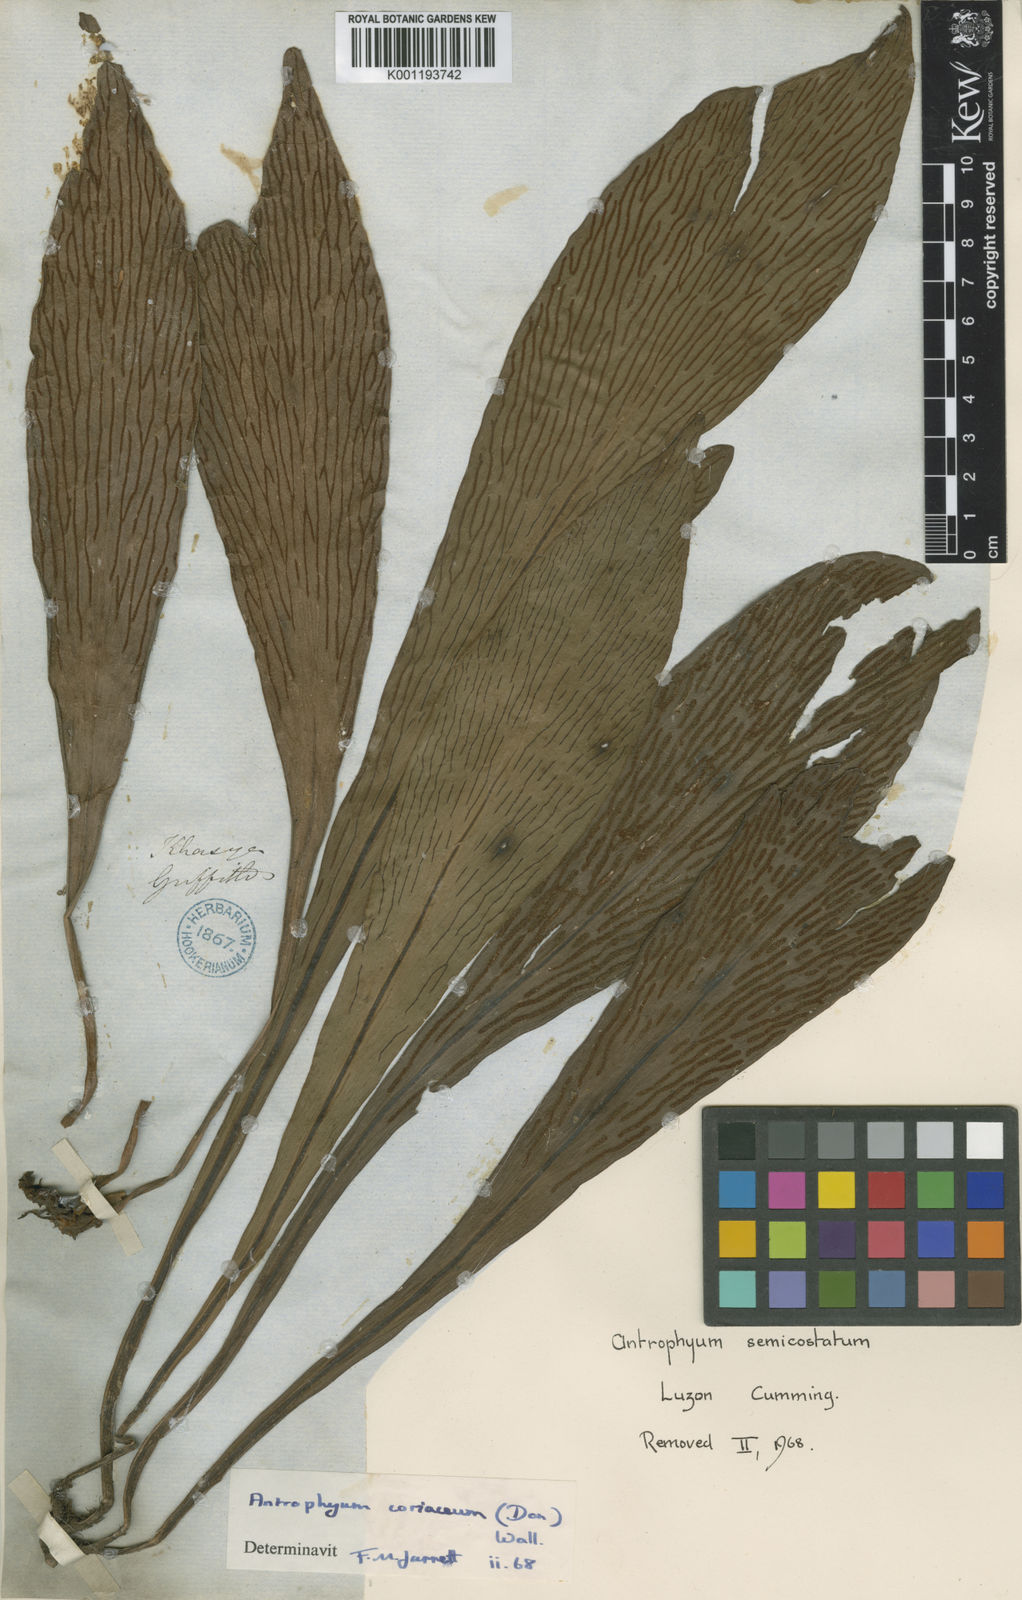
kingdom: Plantae
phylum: Tracheophyta
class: Polypodiopsida
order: Polypodiales
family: Pteridaceae
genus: Antrophyum
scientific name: Antrophyum reticulatum
